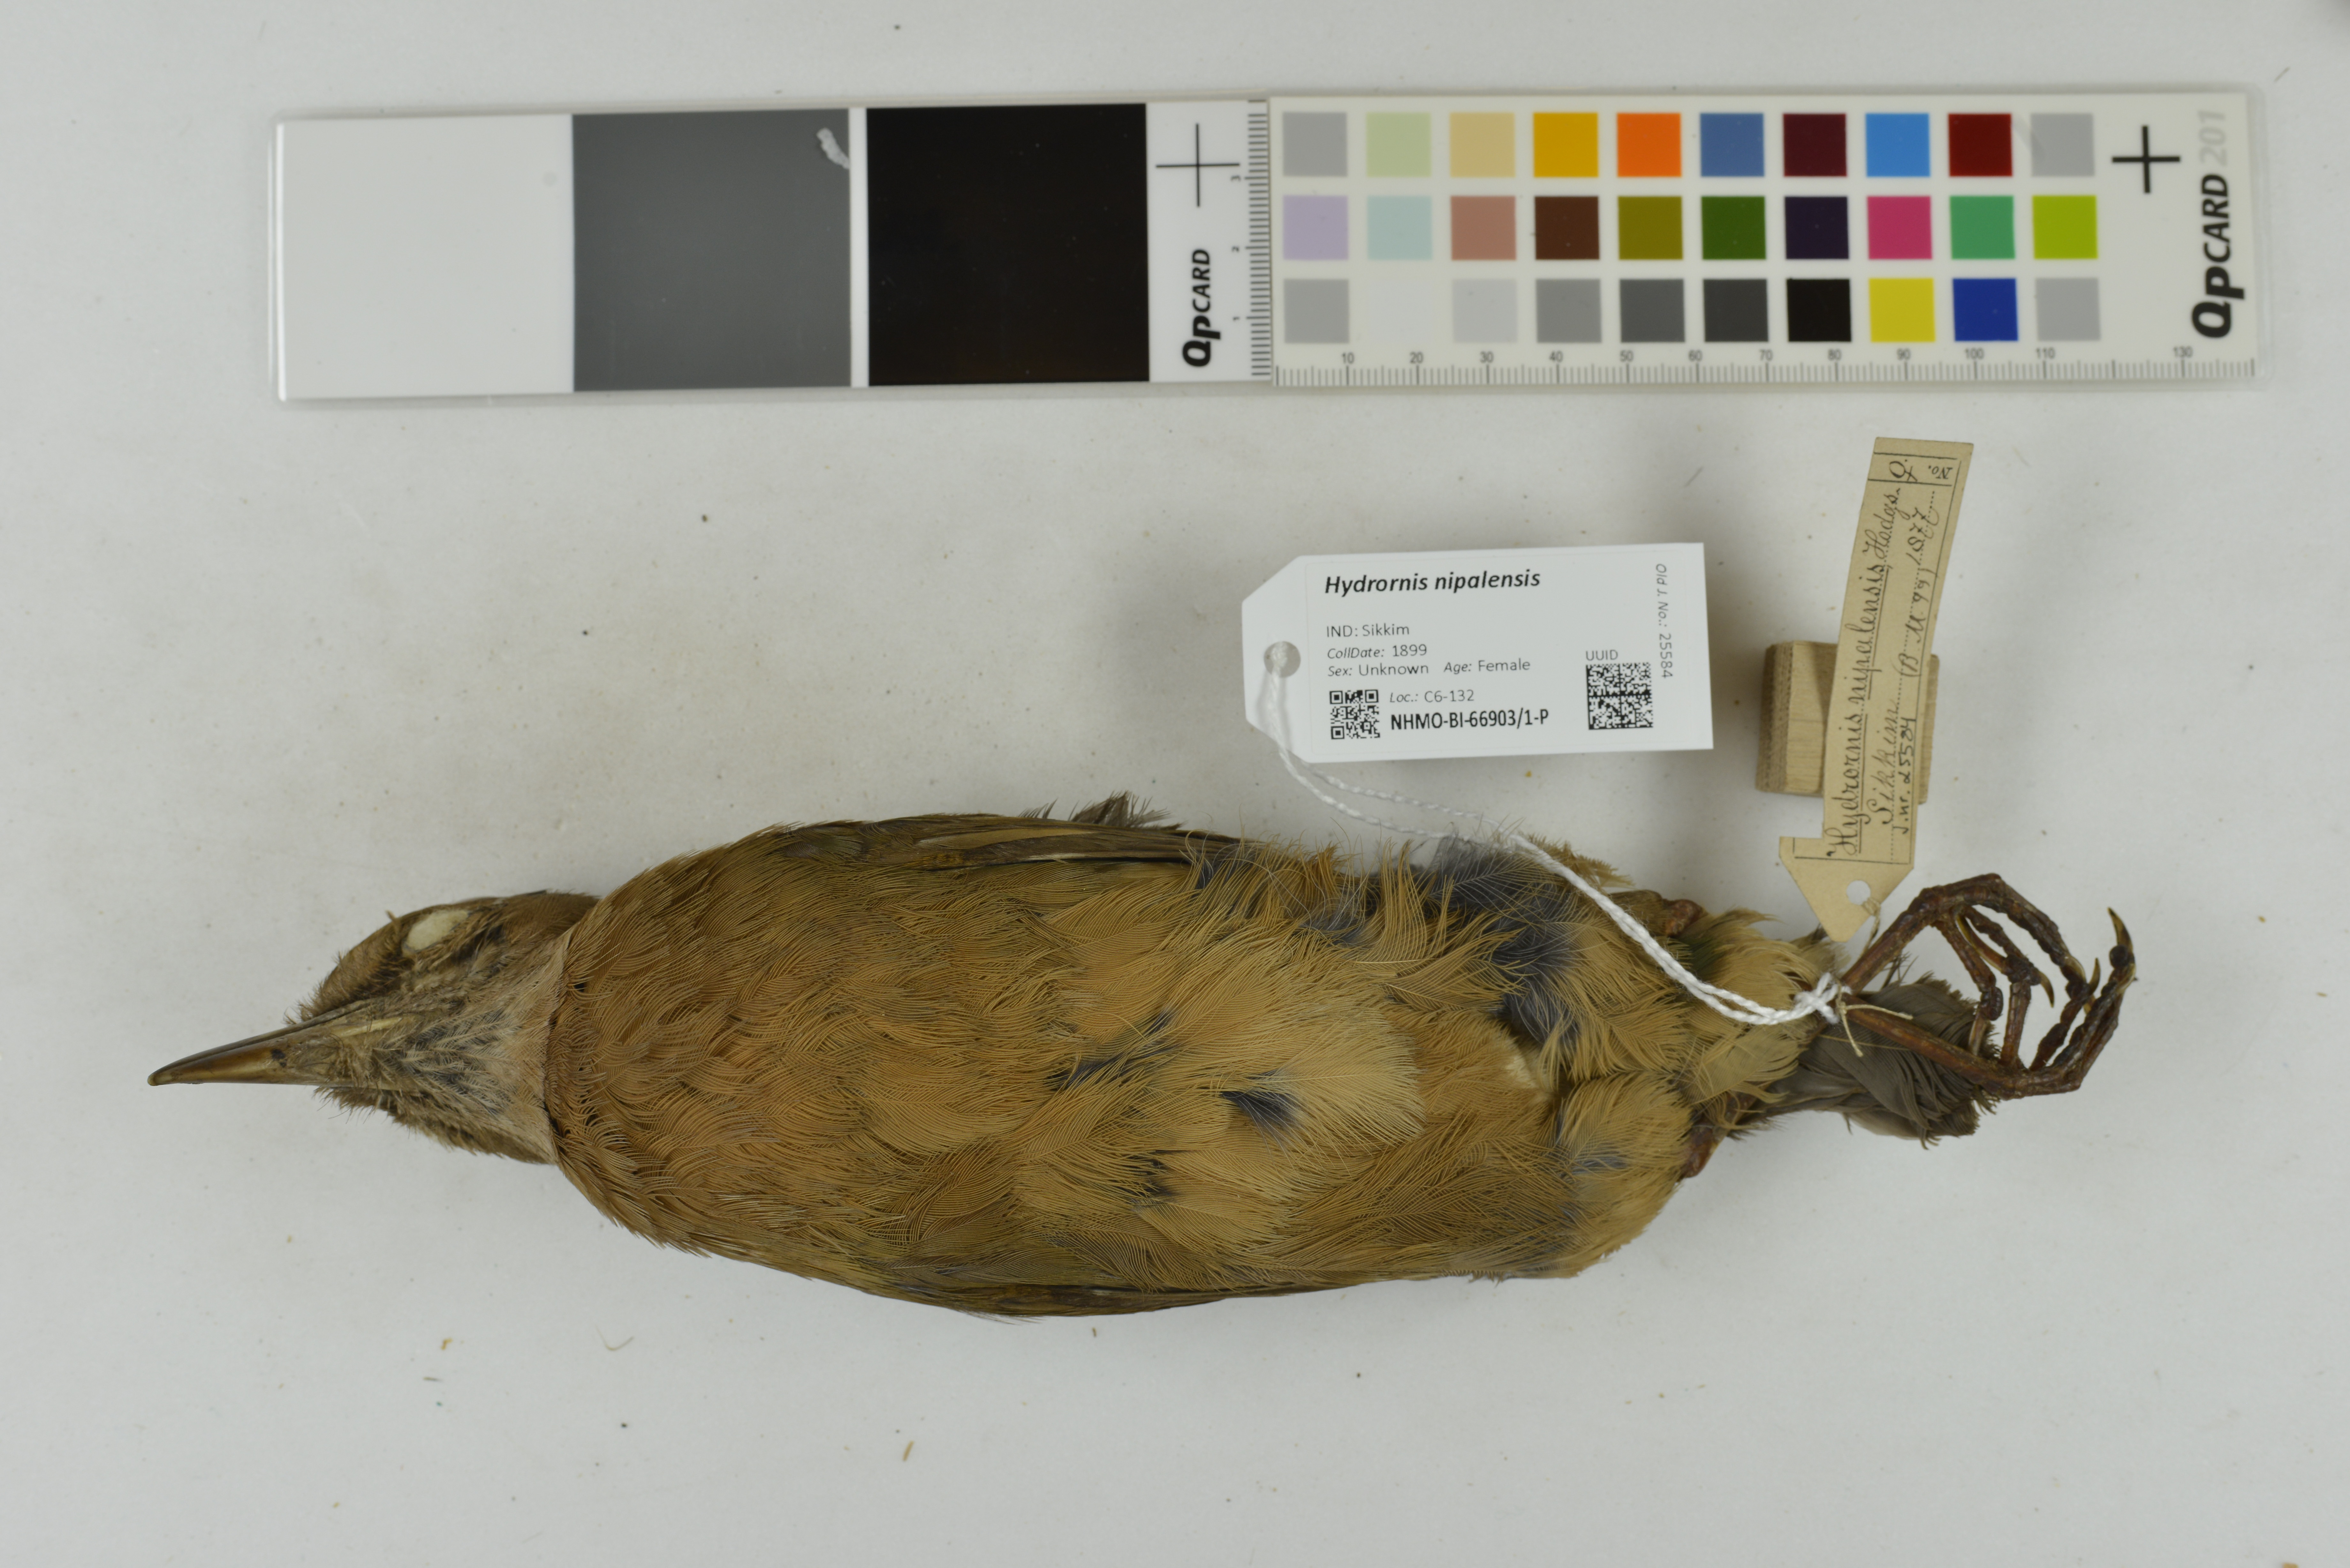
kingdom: Animalia
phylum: Chordata
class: Aves
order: Passeriformes
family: Pittidae
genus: Pitta
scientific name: Pitta nipalensis
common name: Blue-naped pitta
